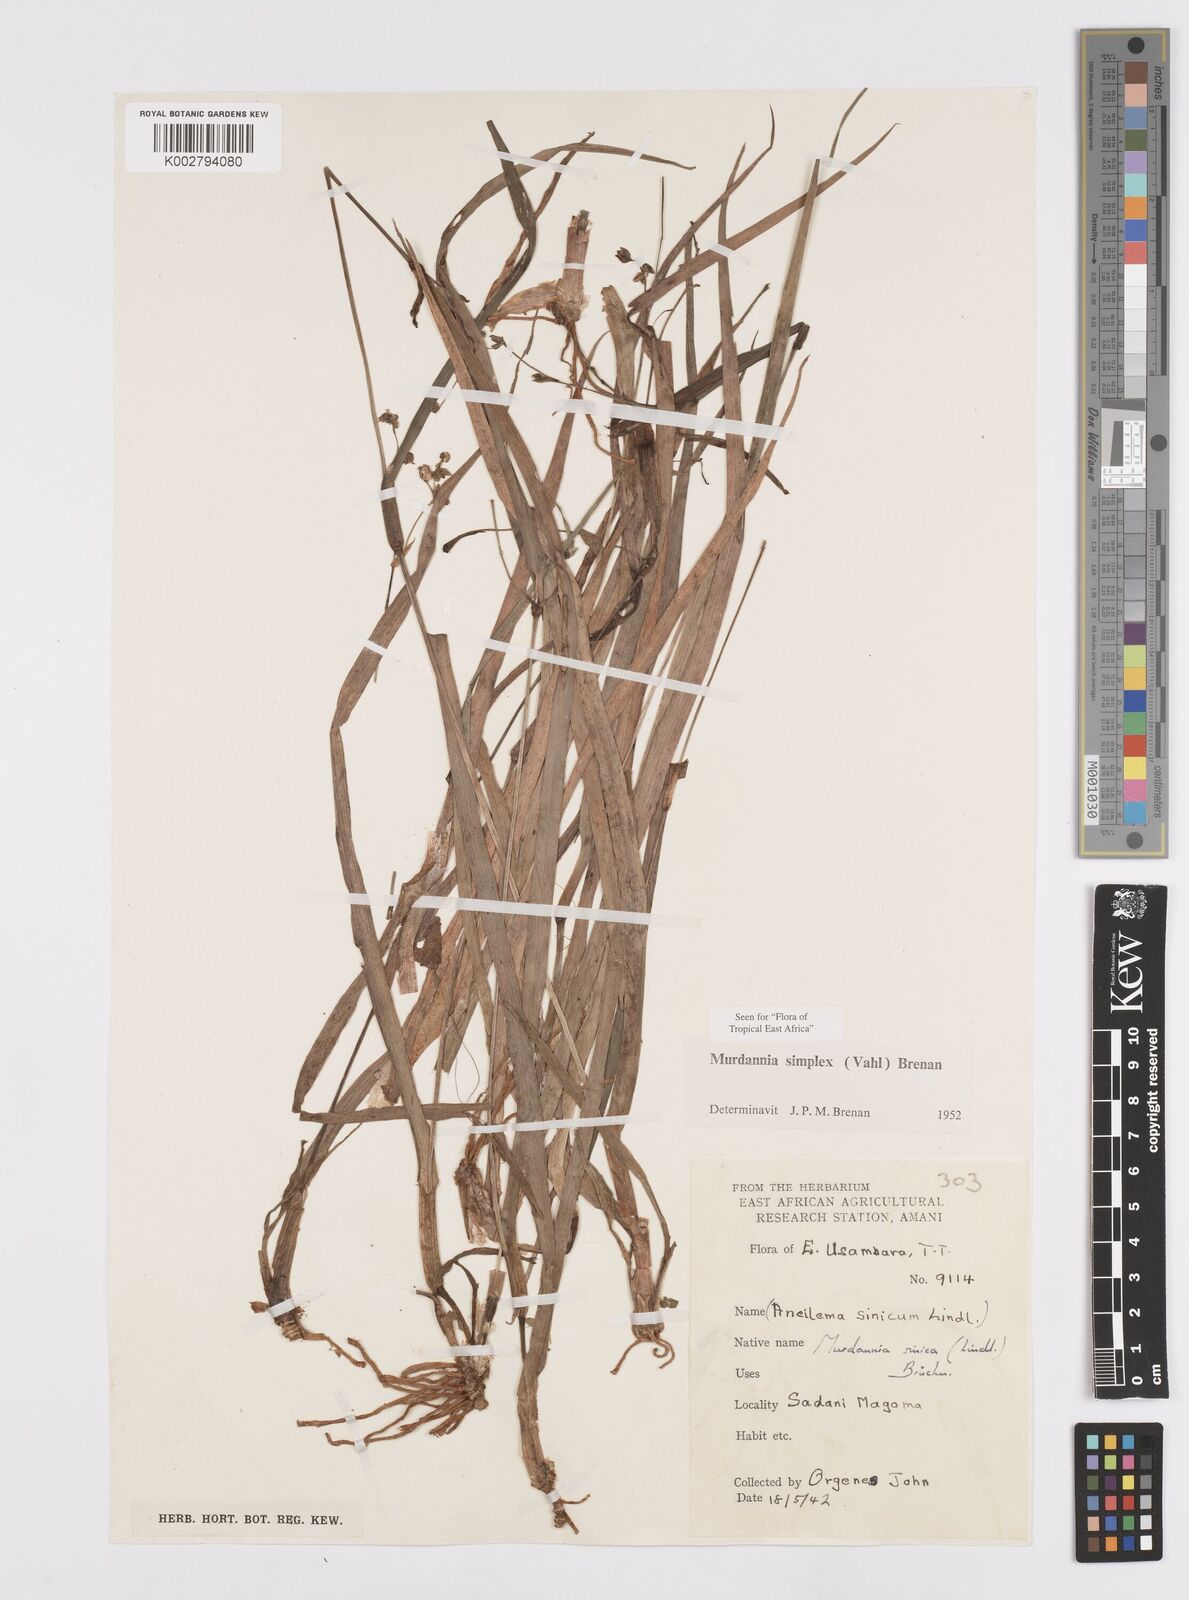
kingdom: Plantae
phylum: Tracheophyta
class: Liliopsida
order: Commelinales
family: Commelinaceae
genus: Murdannia
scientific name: Murdannia simplex
